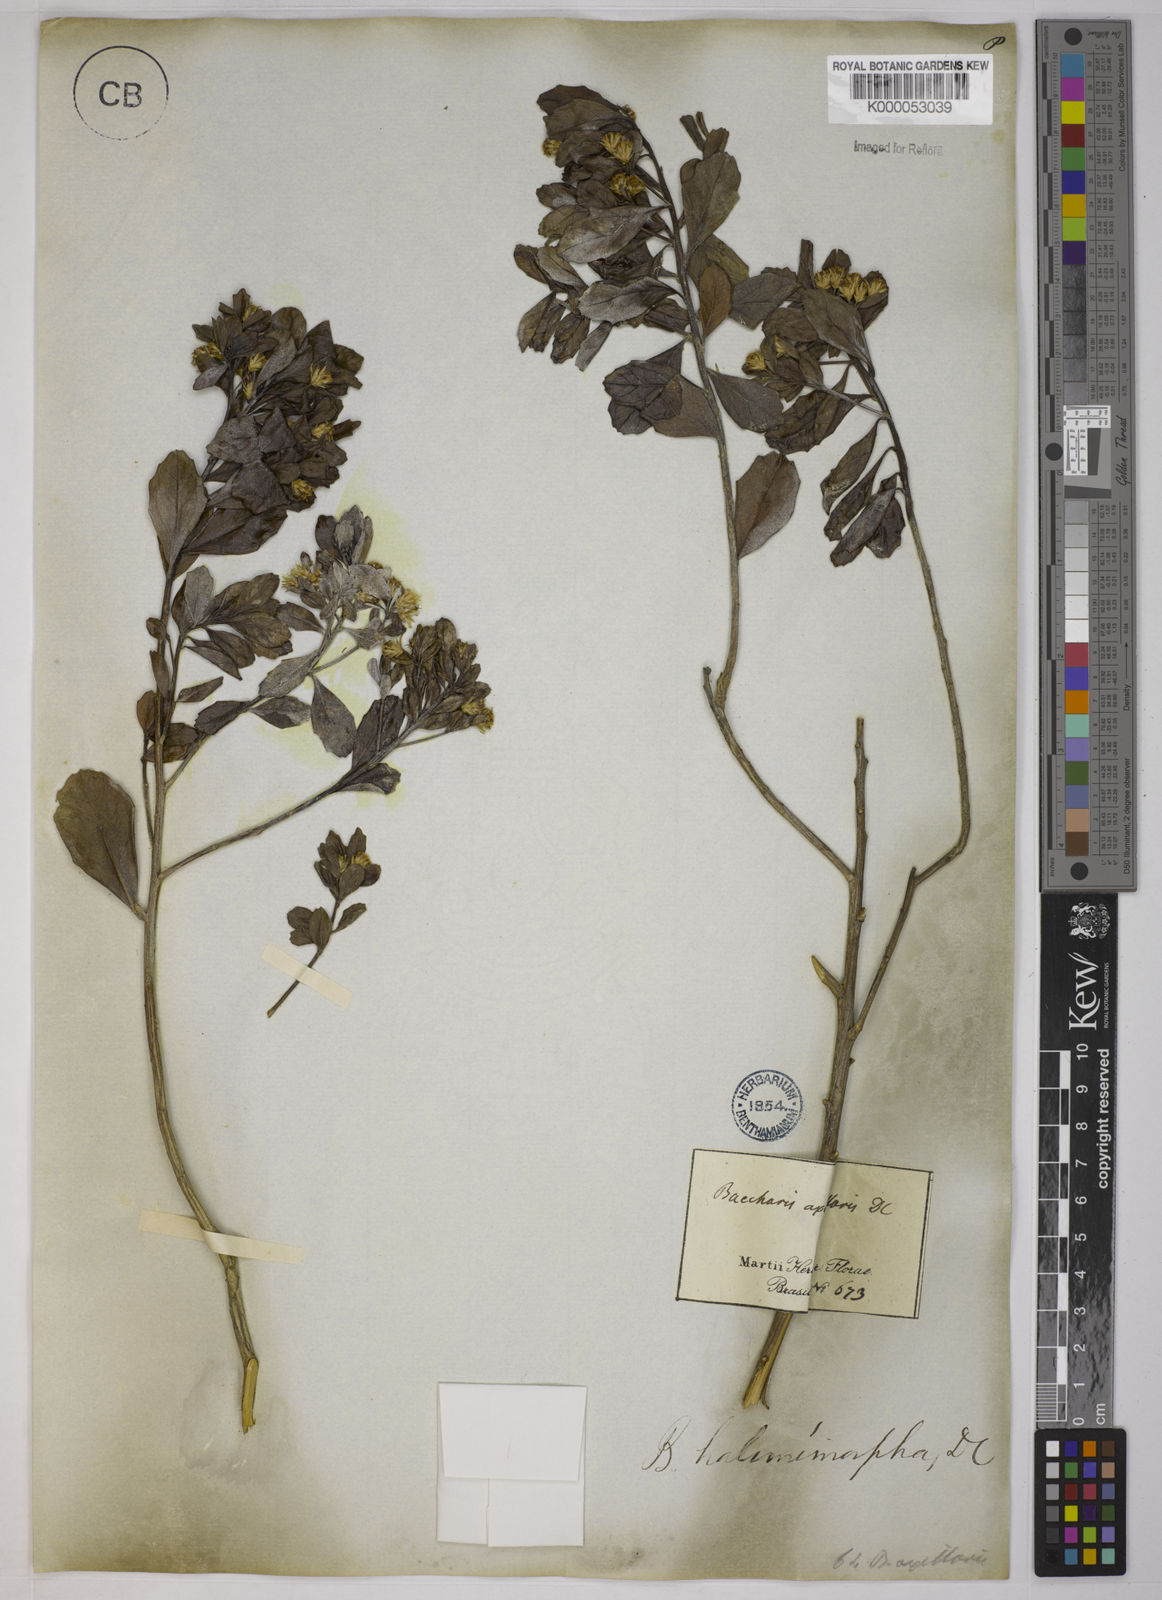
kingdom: Plantae
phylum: Tracheophyta
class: Magnoliopsida
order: Asterales
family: Asteraceae
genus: Baccharis
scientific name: Baccharis retusa
